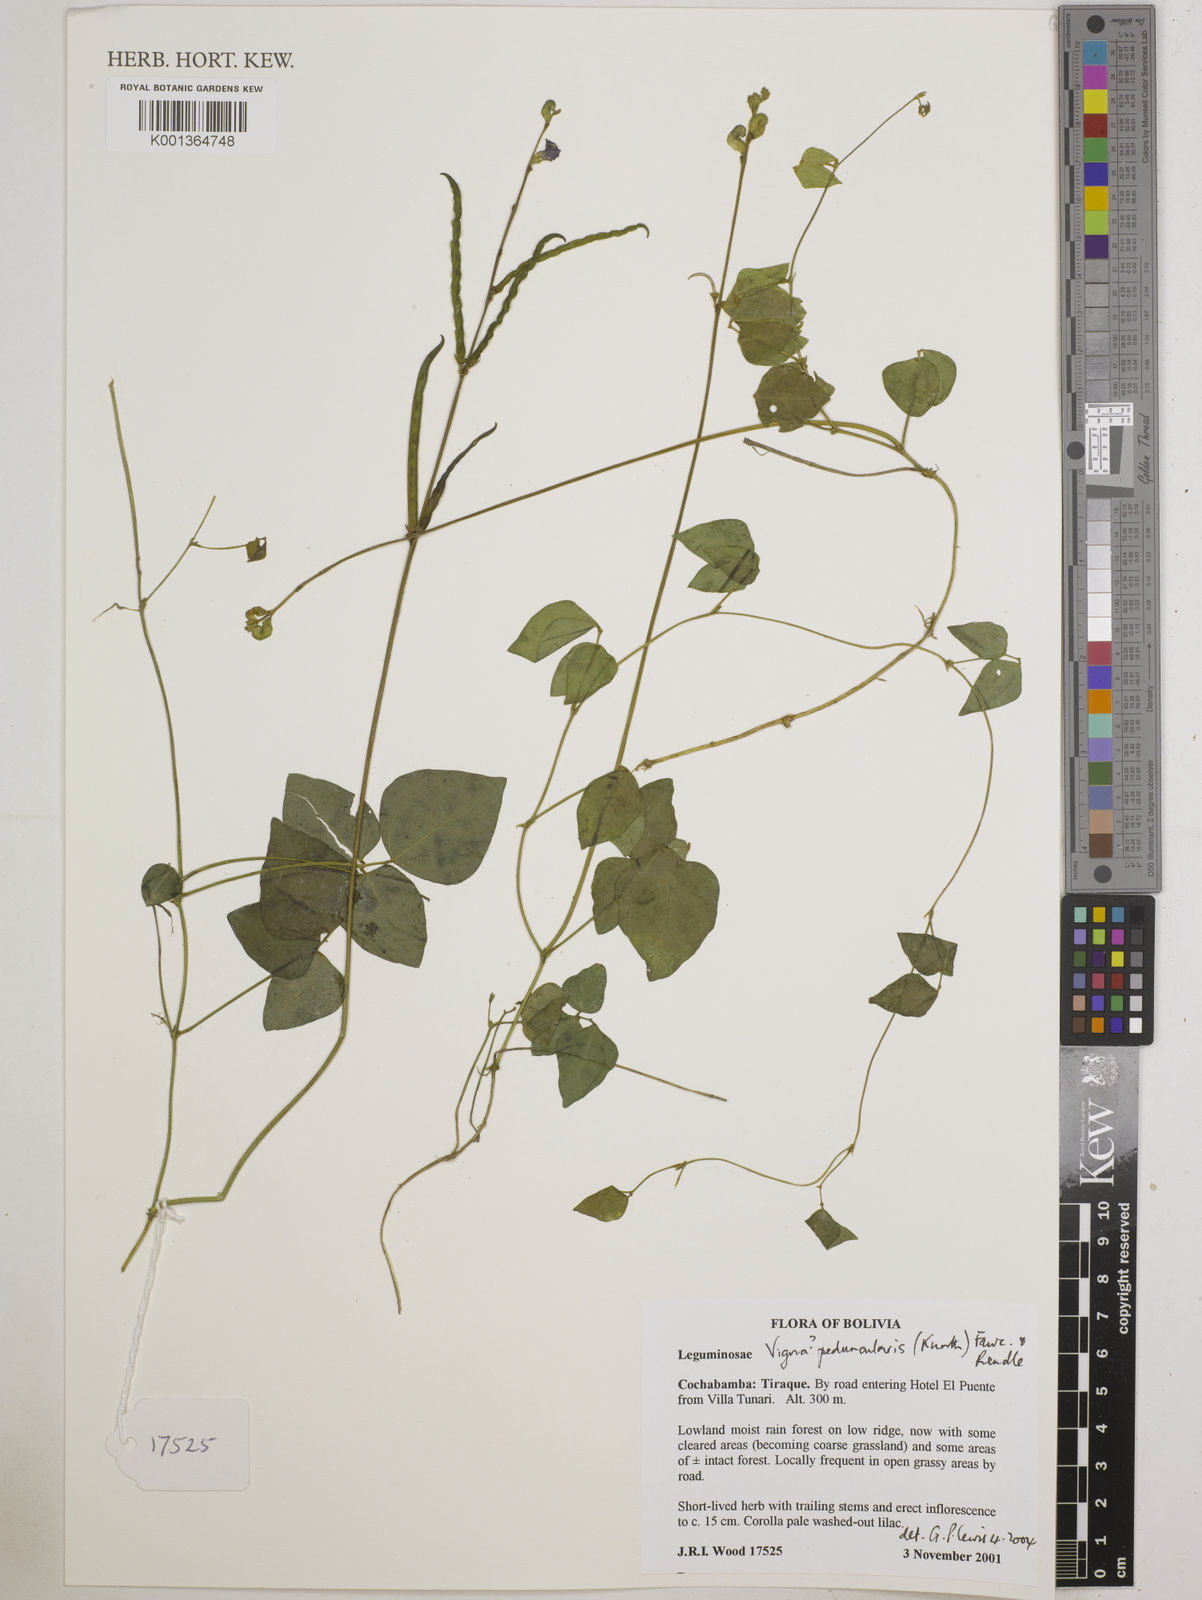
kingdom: Plantae
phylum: Tracheophyta
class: Magnoliopsida
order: Fabales
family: Fabaceae
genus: Ancistrotropis
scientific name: Ancistrotropis peduncularis
